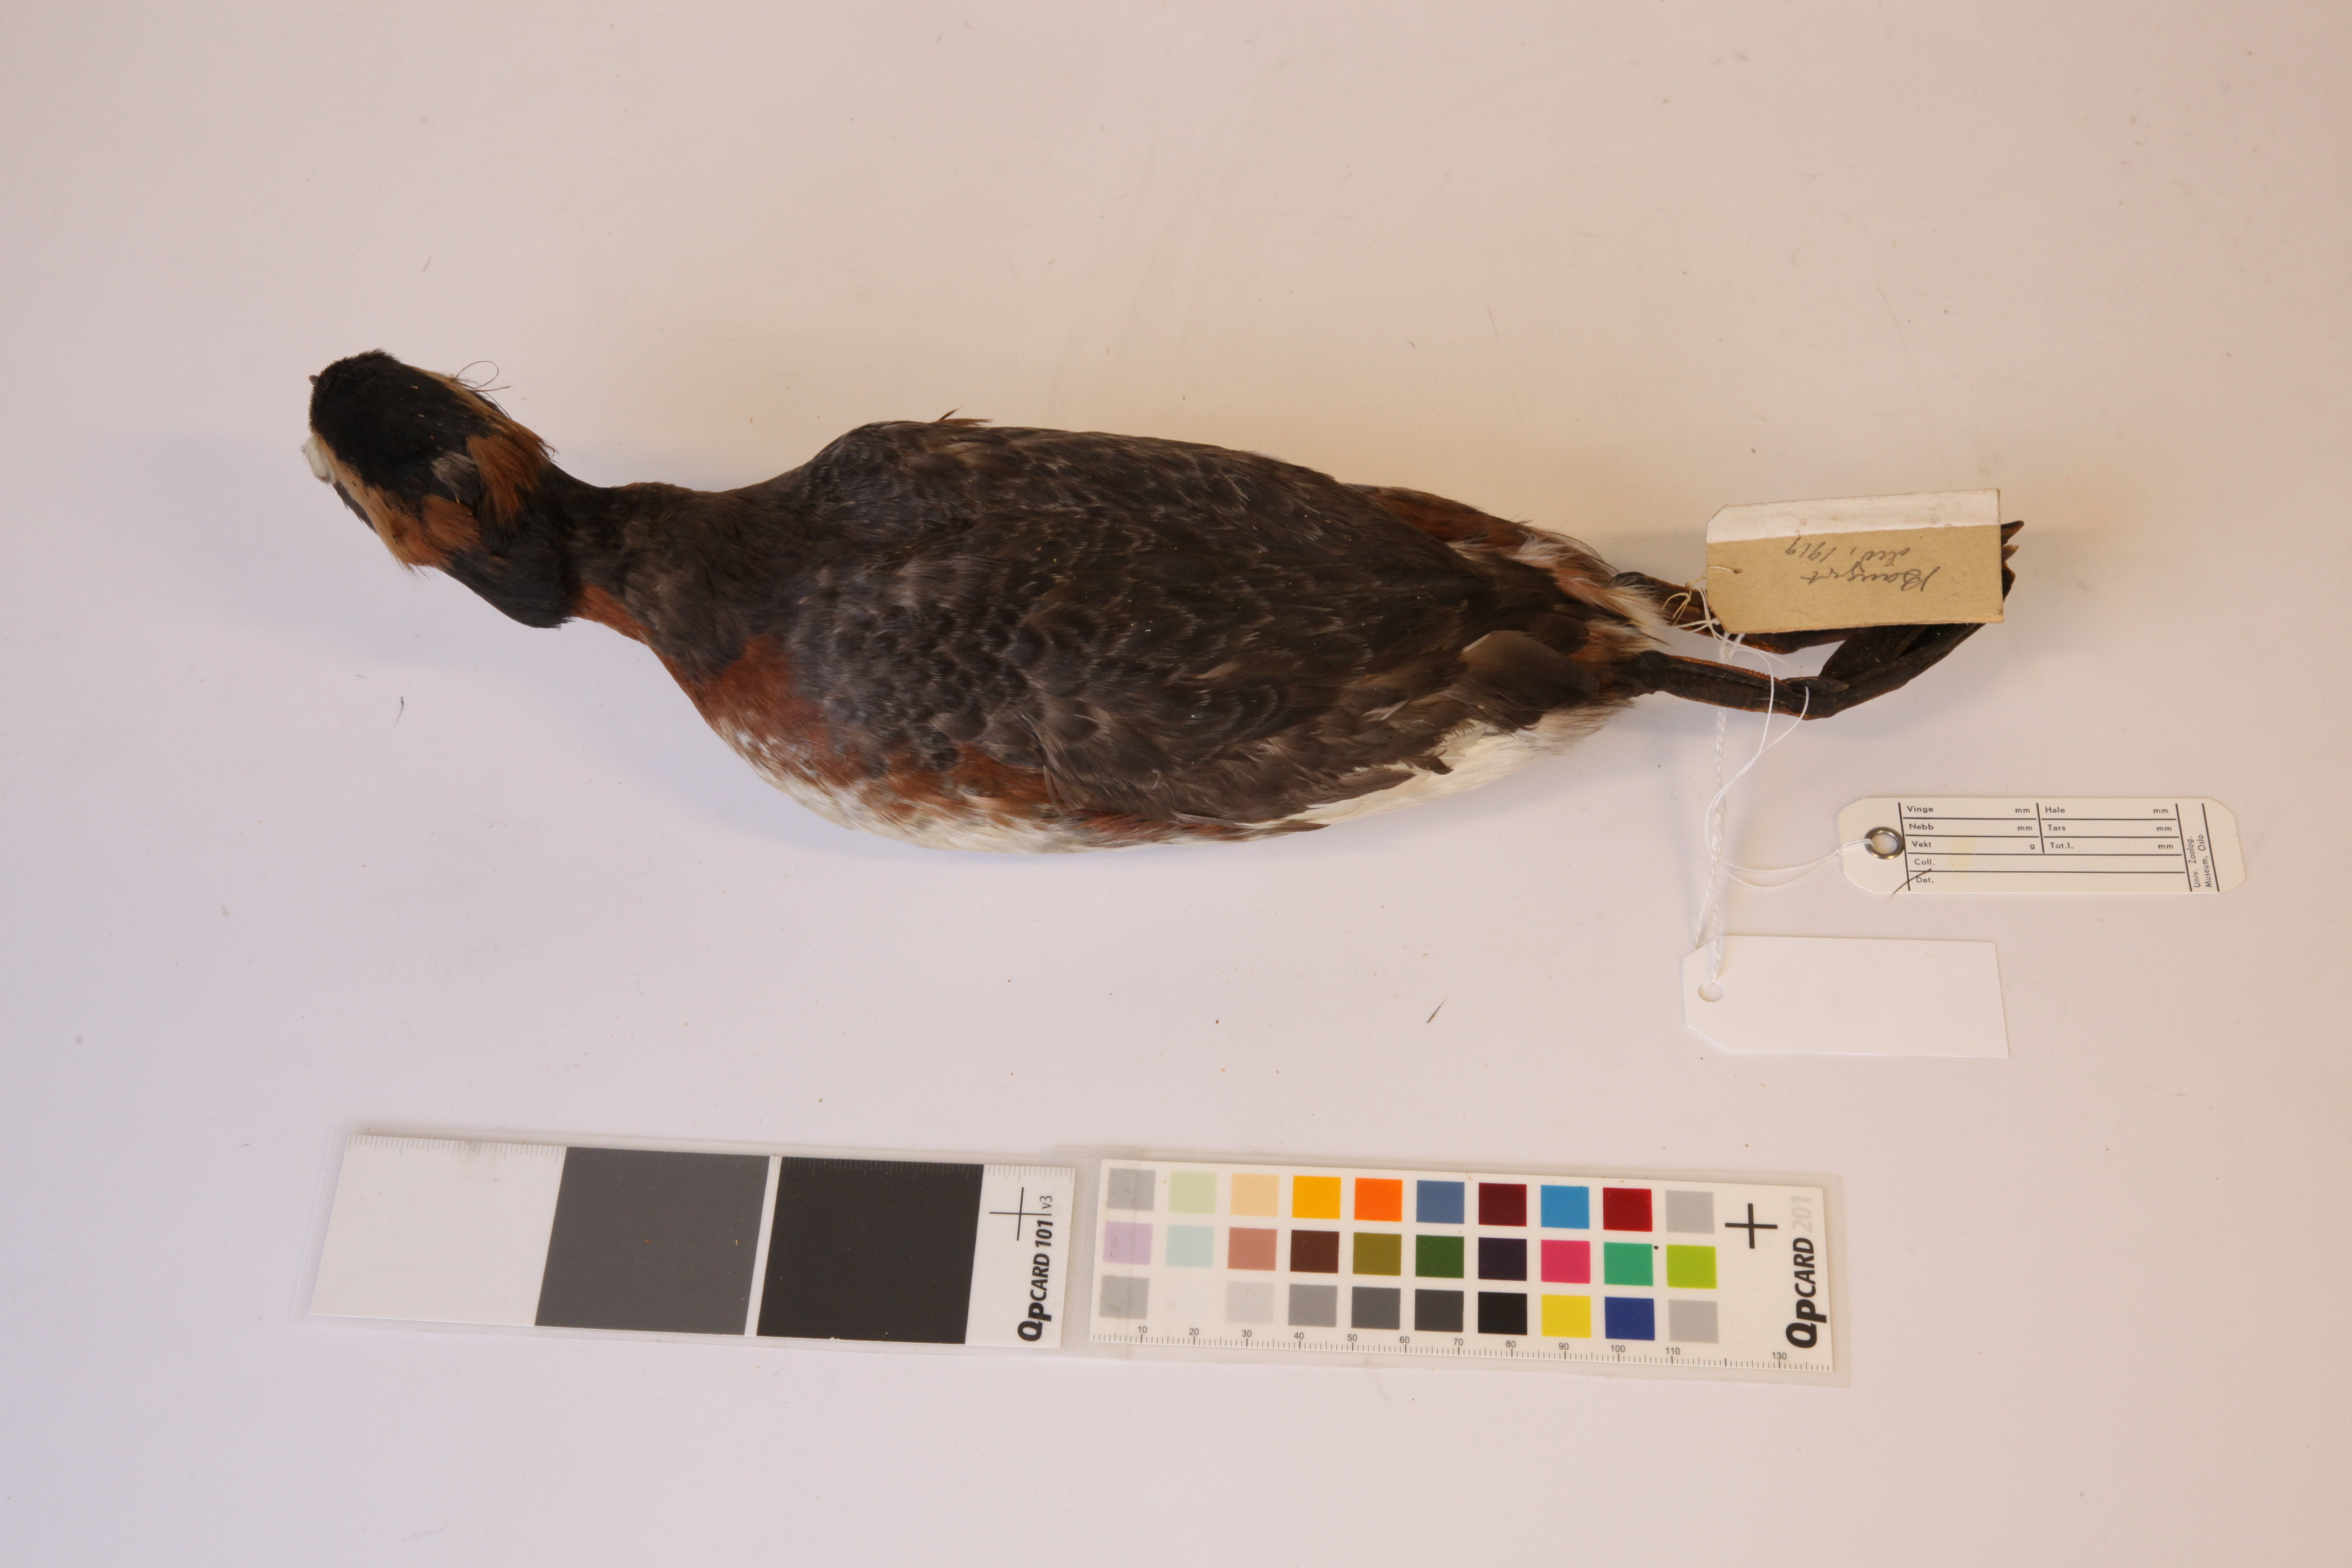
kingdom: Animalia
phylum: Chordata
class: Aves
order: Podicipediformes
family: Podicipedidae
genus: Podiceps
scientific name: Podiceps nigricollis
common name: Black-necked grebe
